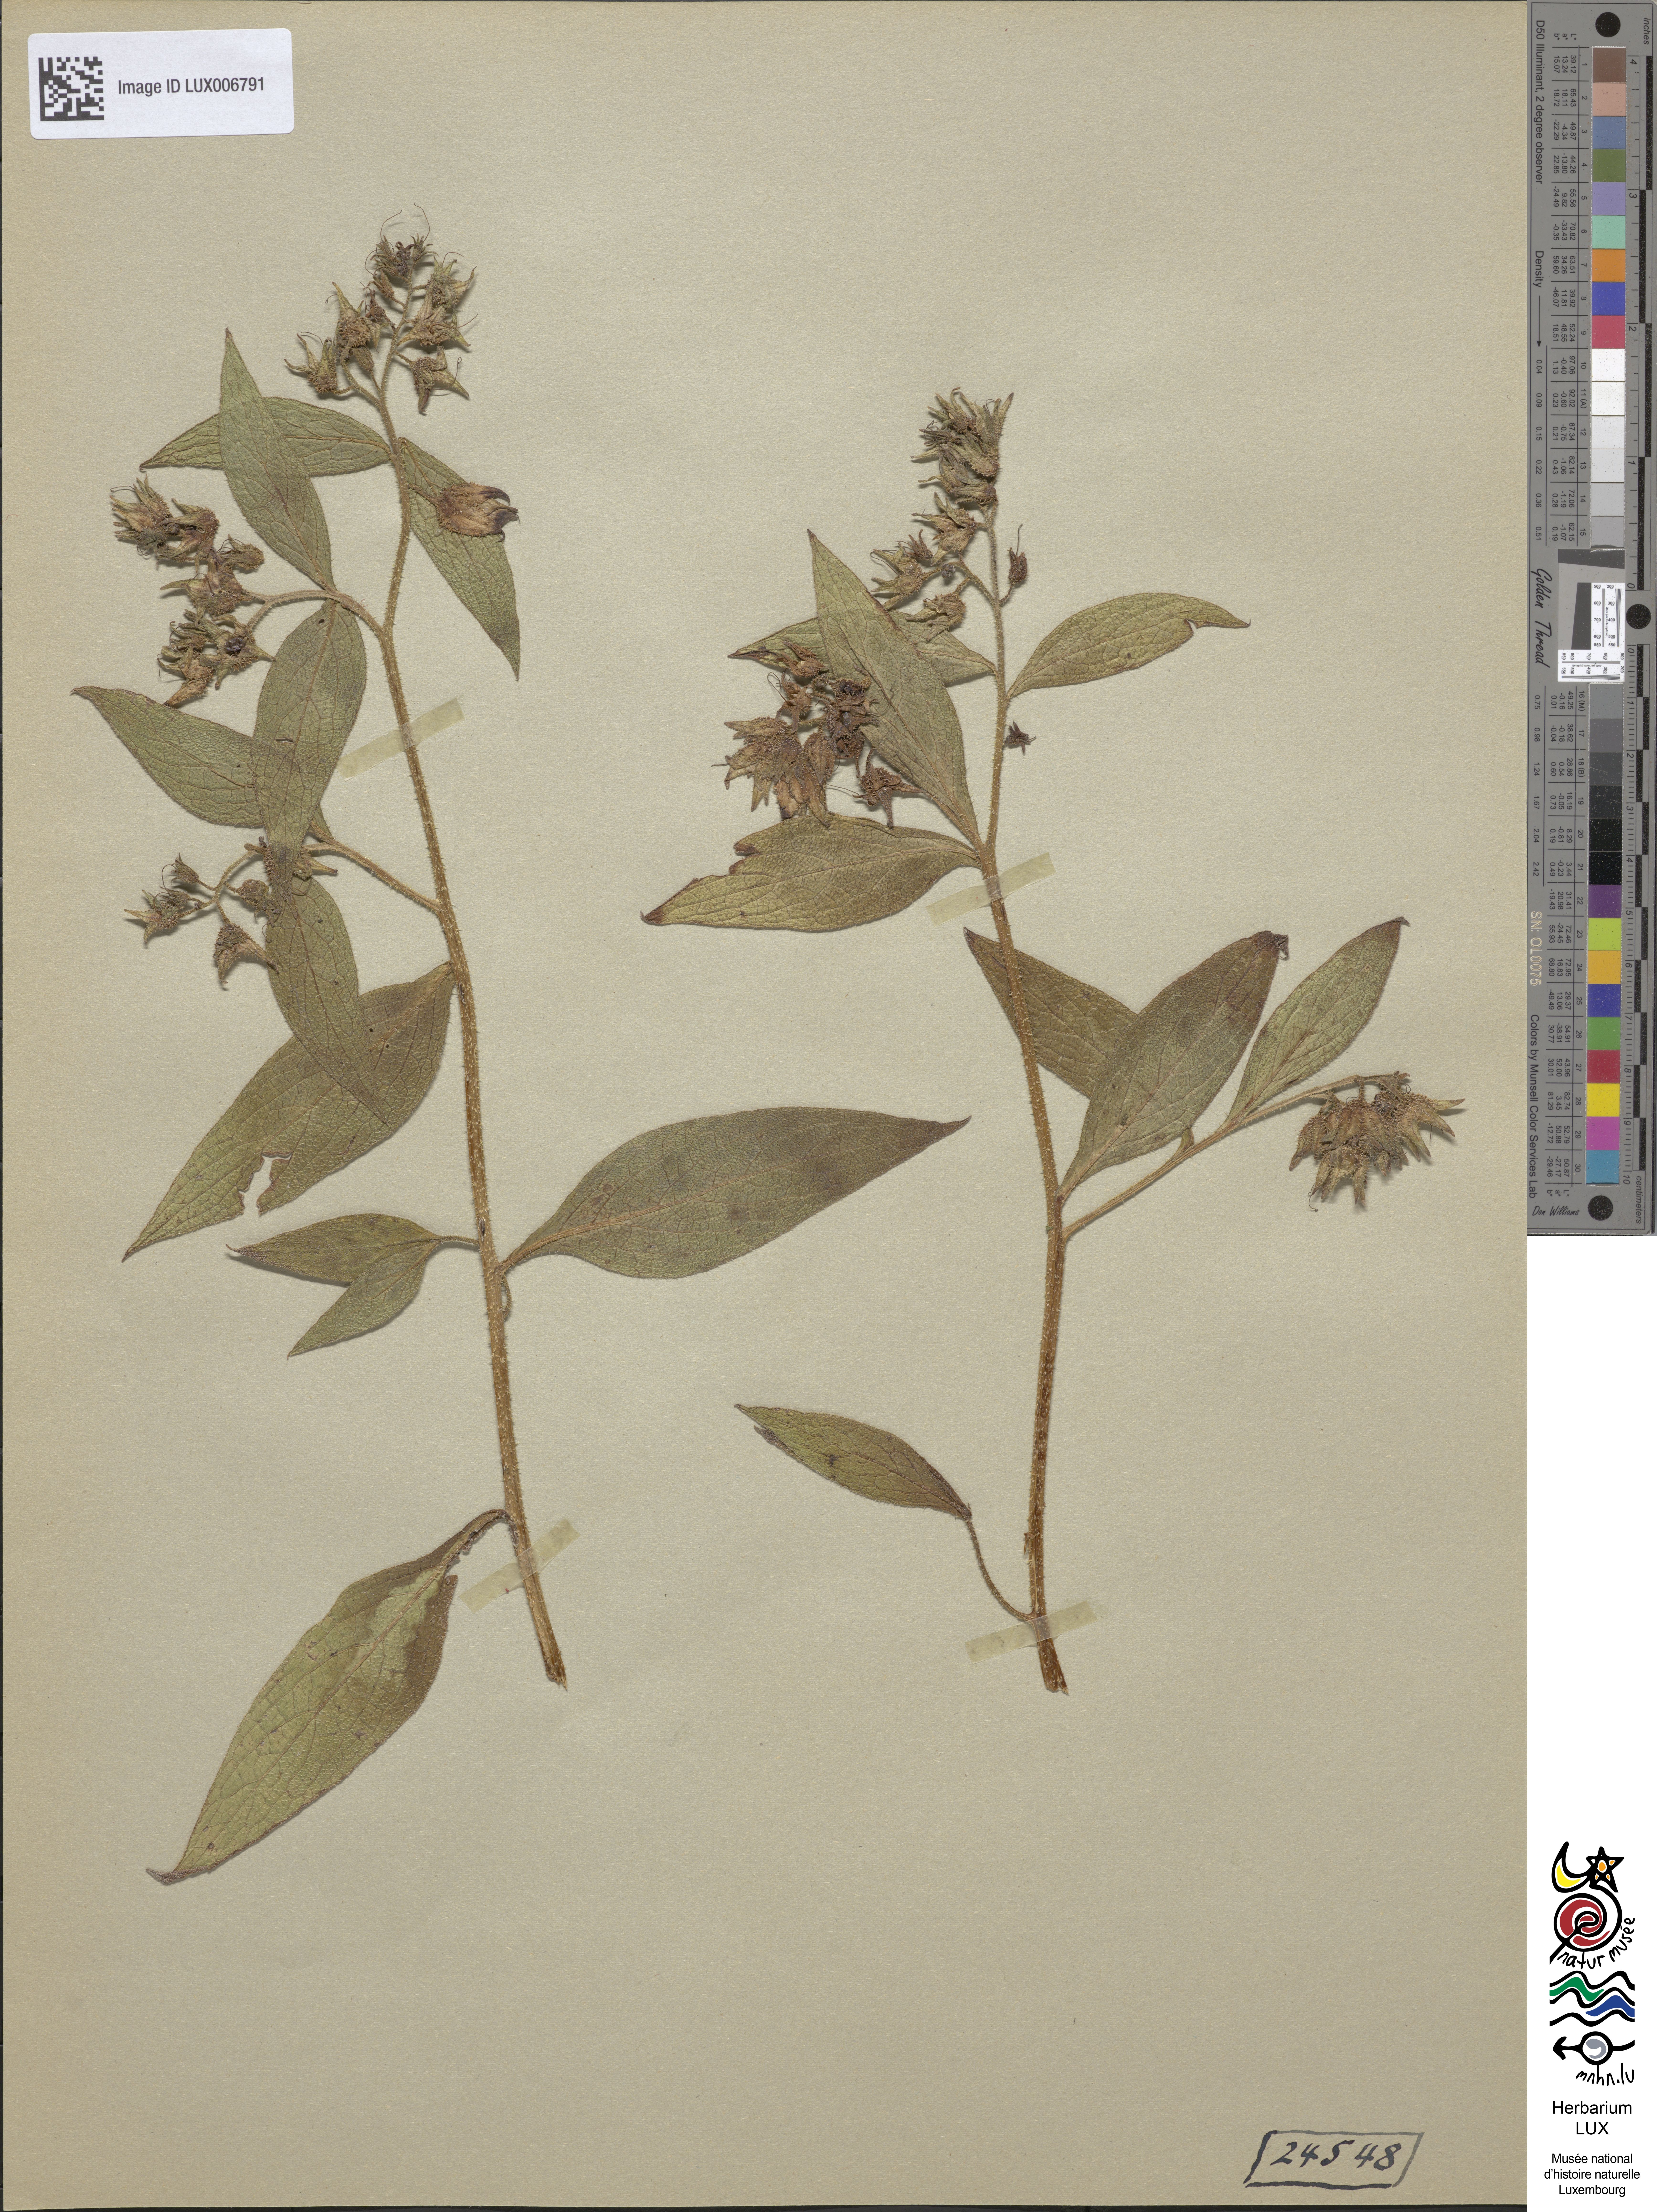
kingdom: Plantae
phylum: Tracheophyta
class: Magnoliopsida
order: Boraginales
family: Boraginaceae
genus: Symphytum
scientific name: Symphytum officinale
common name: Common comfrey
